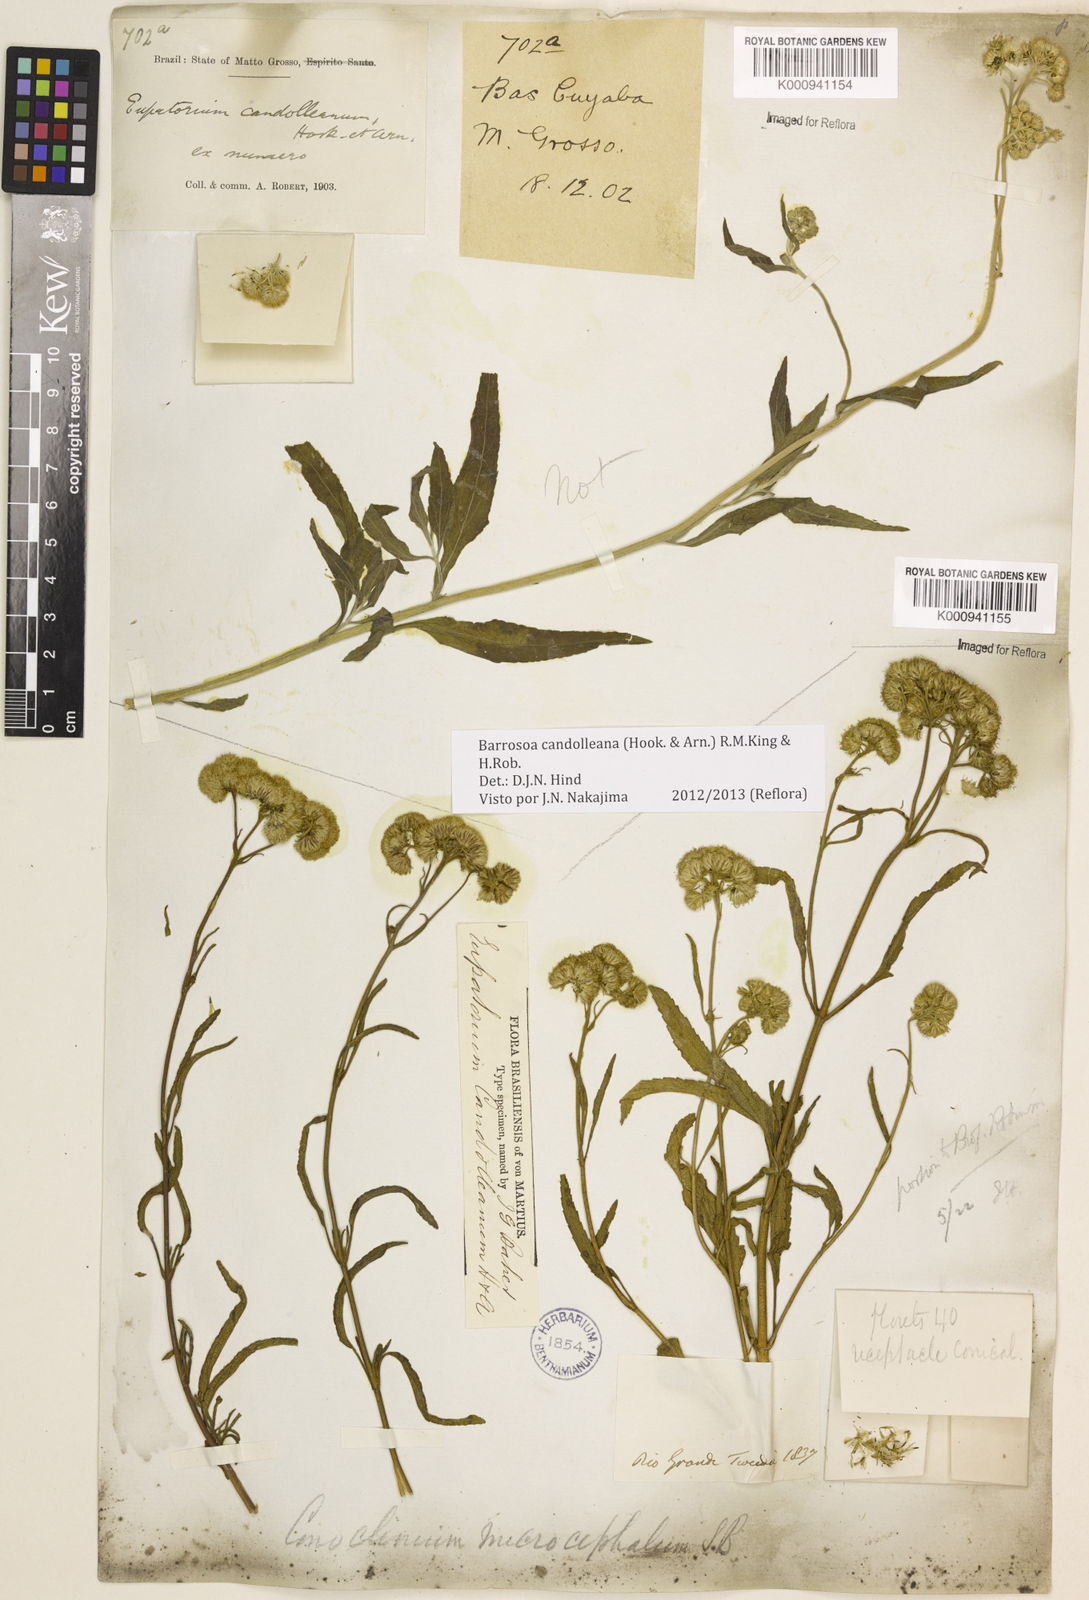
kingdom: Plantae
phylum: Tracheophyta
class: Magnoliopsida
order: Asterales
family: Asteraceae
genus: Barrosoa
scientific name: Barrosoa candolleana
